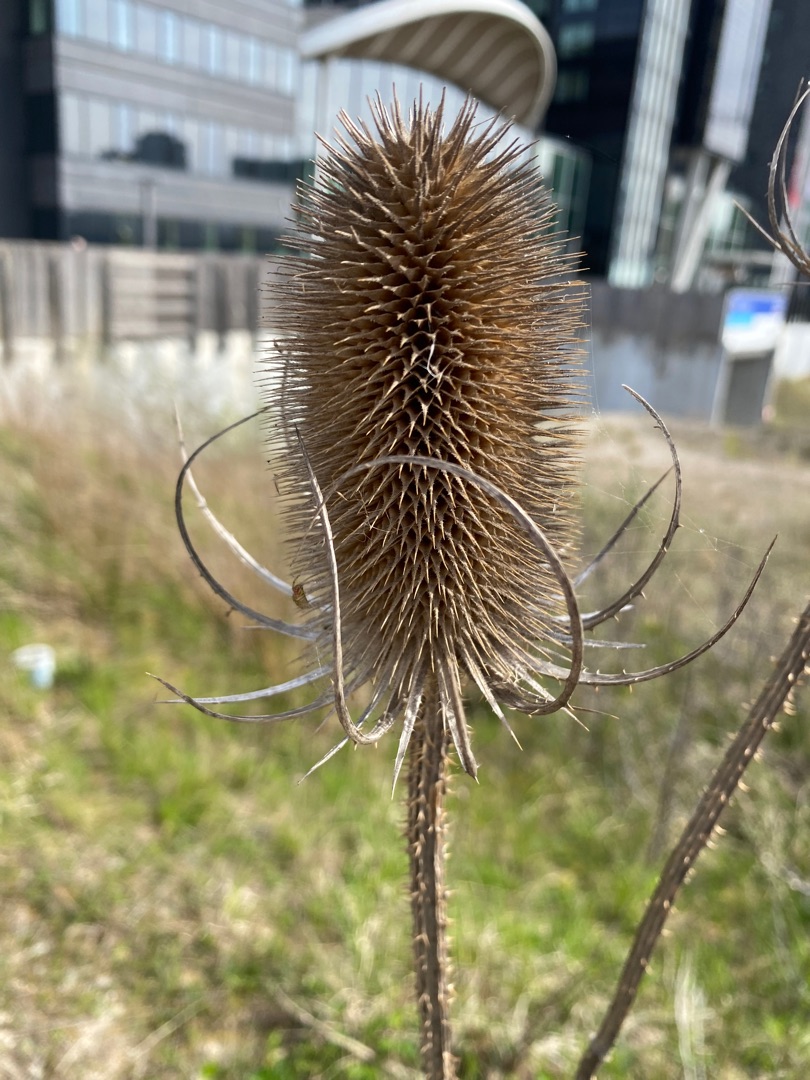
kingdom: Plantae
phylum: Tracheophyta
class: Magnoliopsida
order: Dipsacales
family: Caprifoliaceae
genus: Dipsacus
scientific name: Dipsacus fullonum
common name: Gærde-kartebolle
